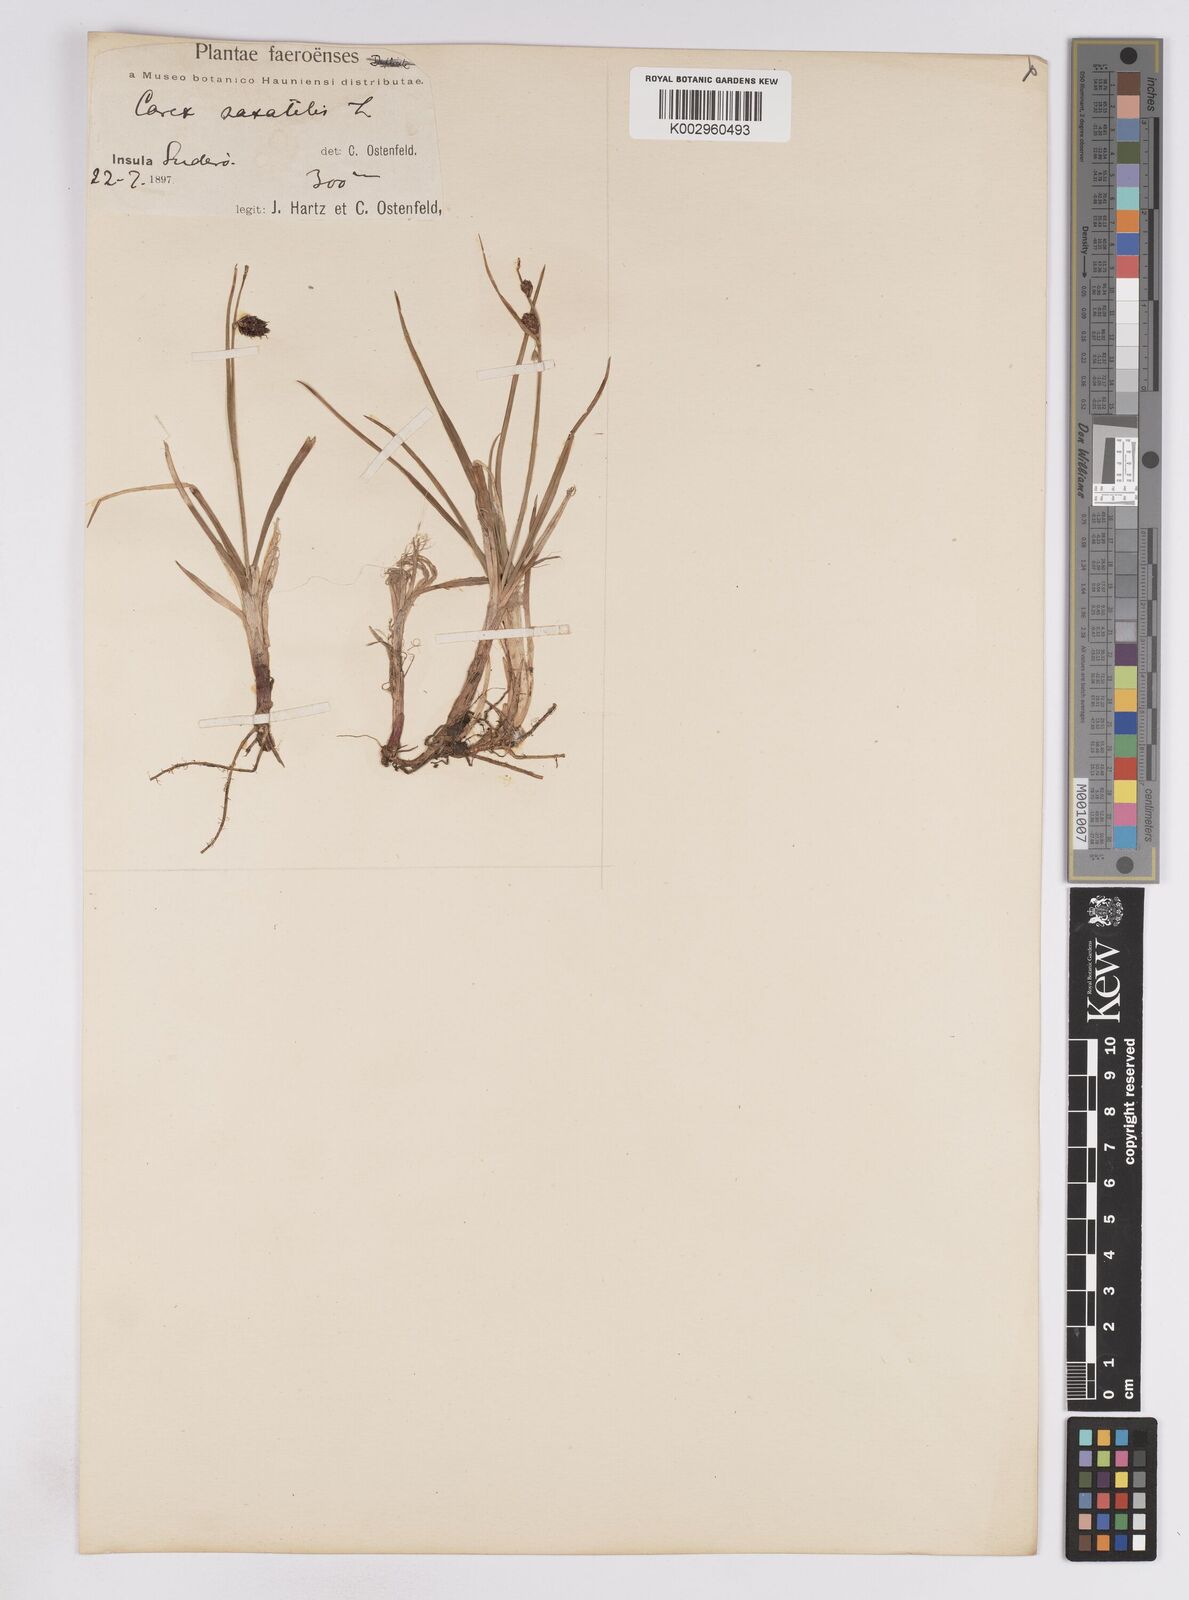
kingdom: Plantae
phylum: Tracheophyta
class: Liliopsida
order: Poales
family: Cyperaceae
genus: Carex
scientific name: Carex saxatilis
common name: Russet sedge
